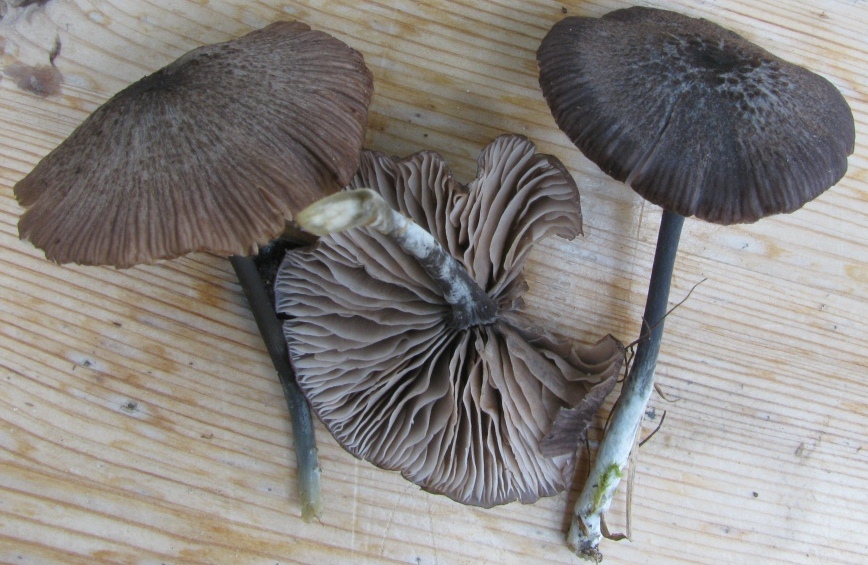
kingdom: Fungi
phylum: Basidiomycota
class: Agaricomycetes
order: Agaricales
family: Entolomataceae
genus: Entoloma
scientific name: Entoloma chalybeum
